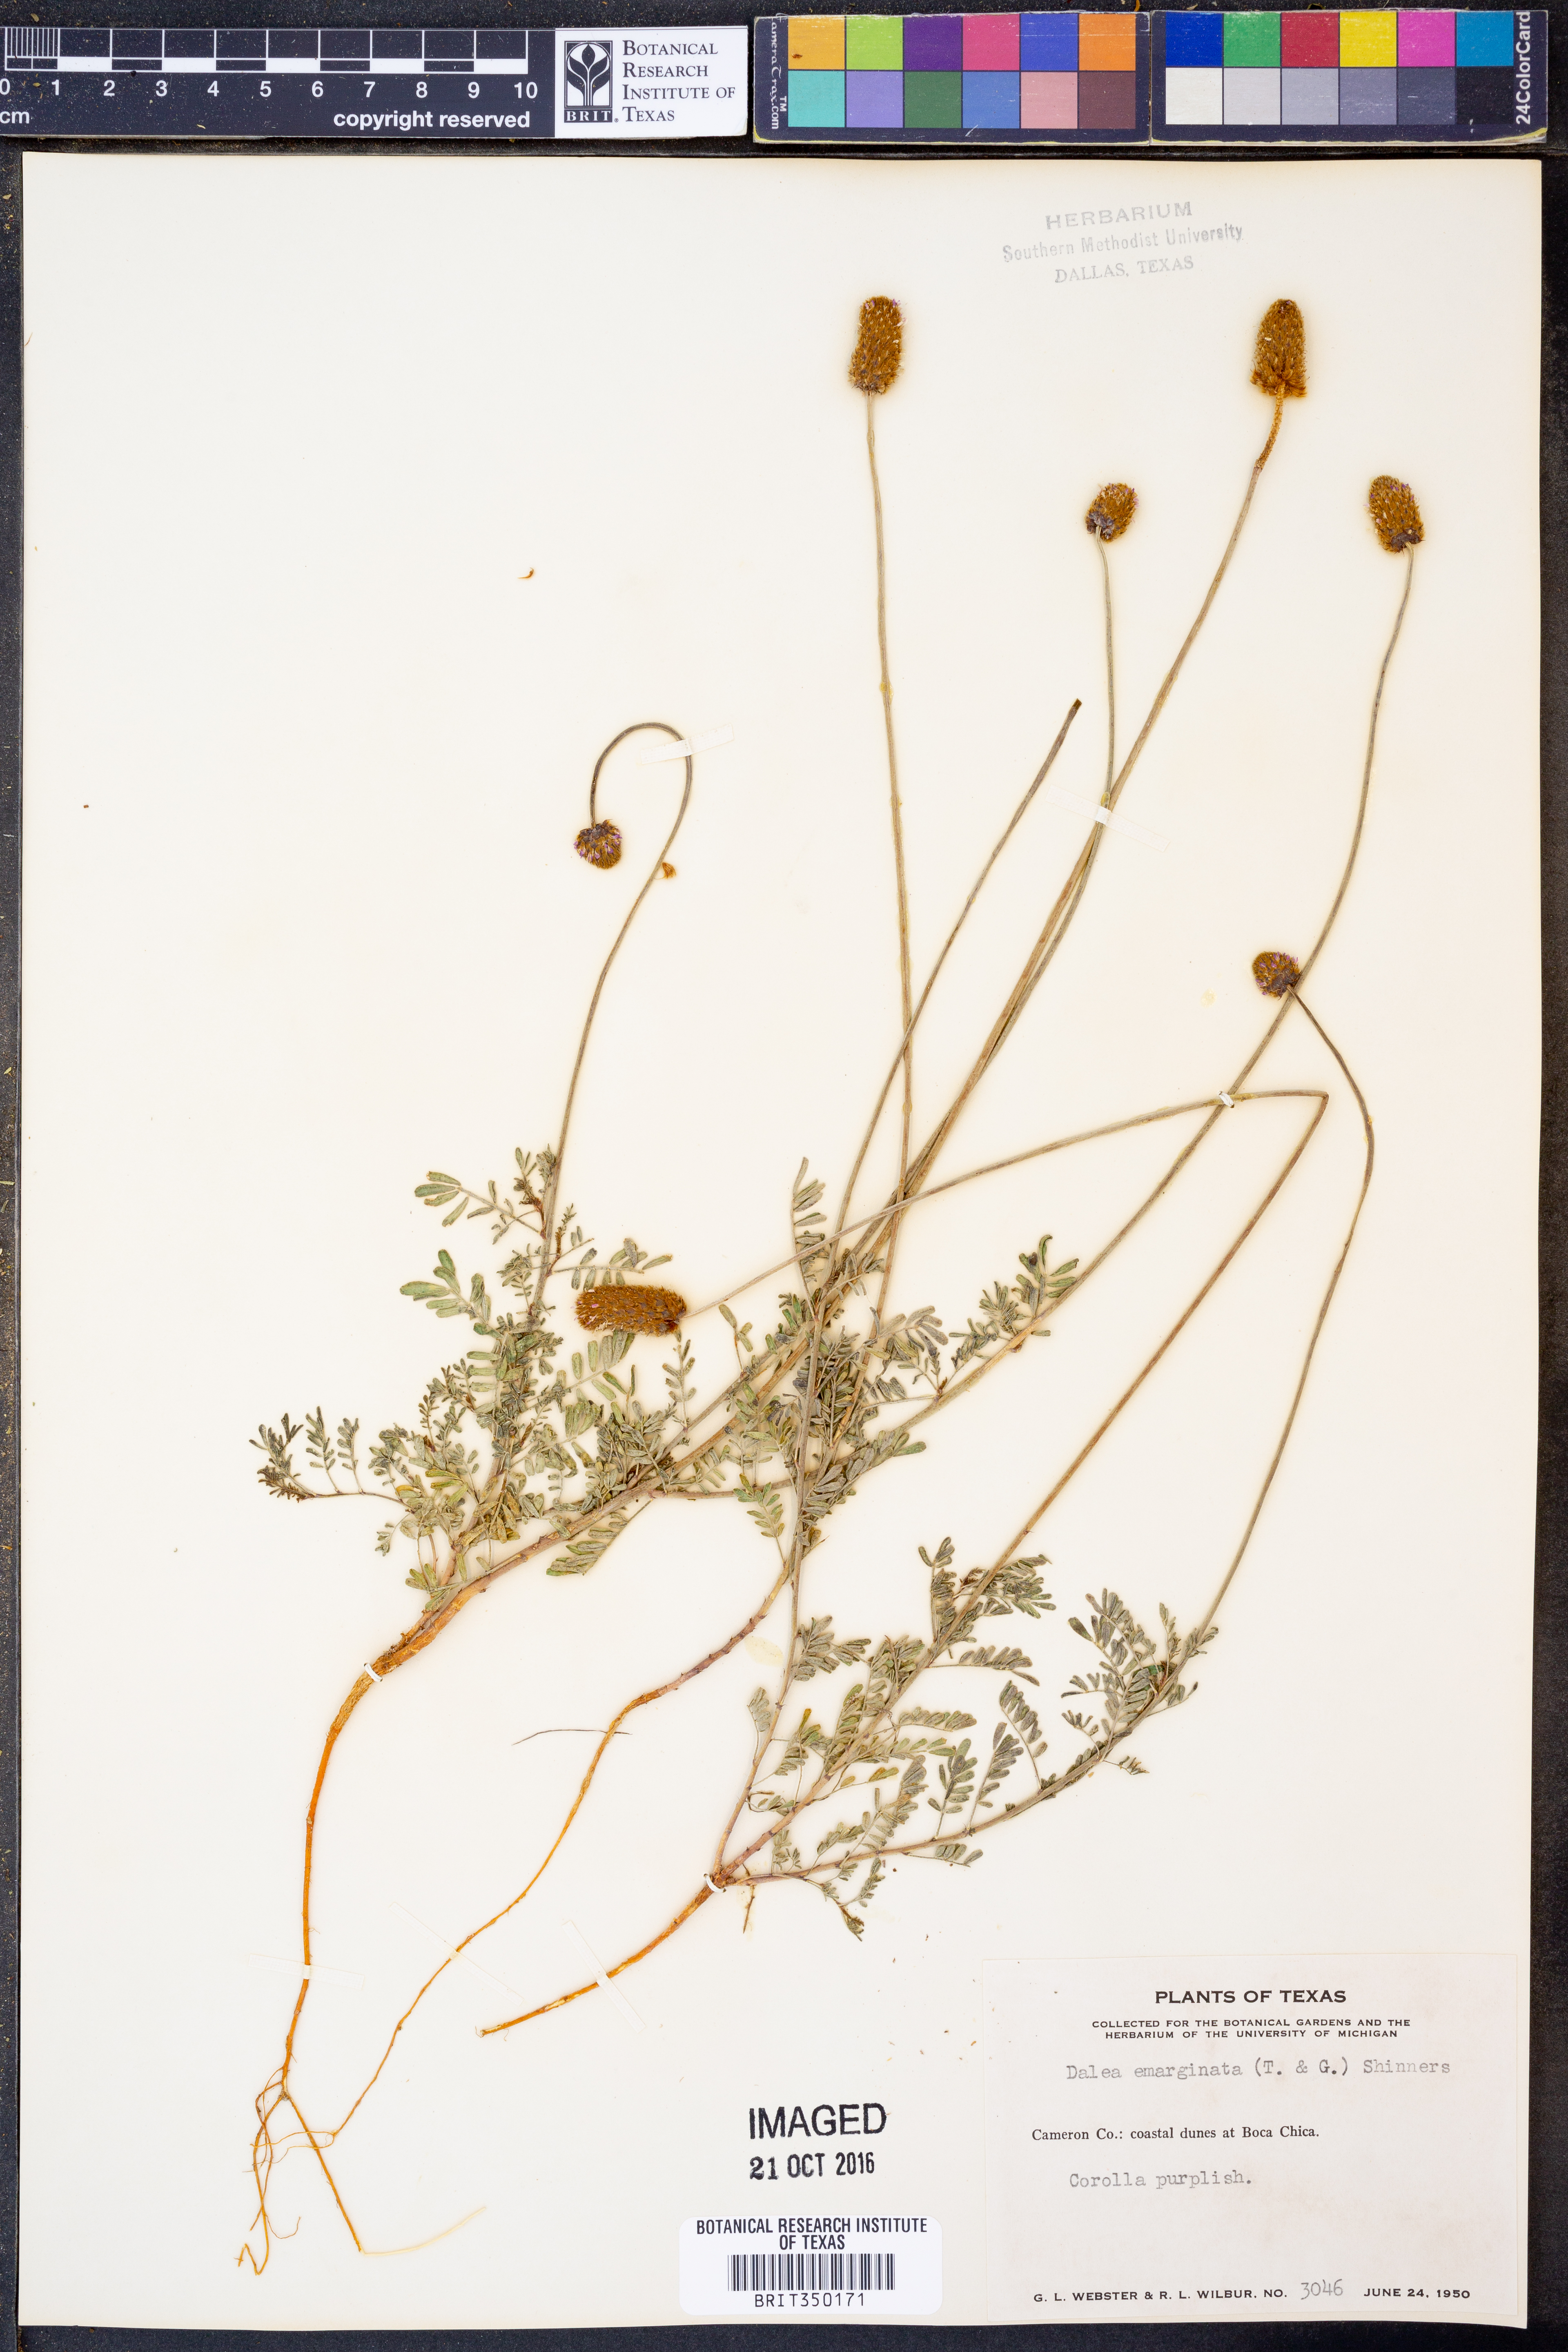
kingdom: Plantae
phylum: Tracheophyta
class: Magnoliopsida
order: Fabales
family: Fabaceae
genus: Dalea
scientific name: Dalea emarginata
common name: Wedgeleaf prairie clover
